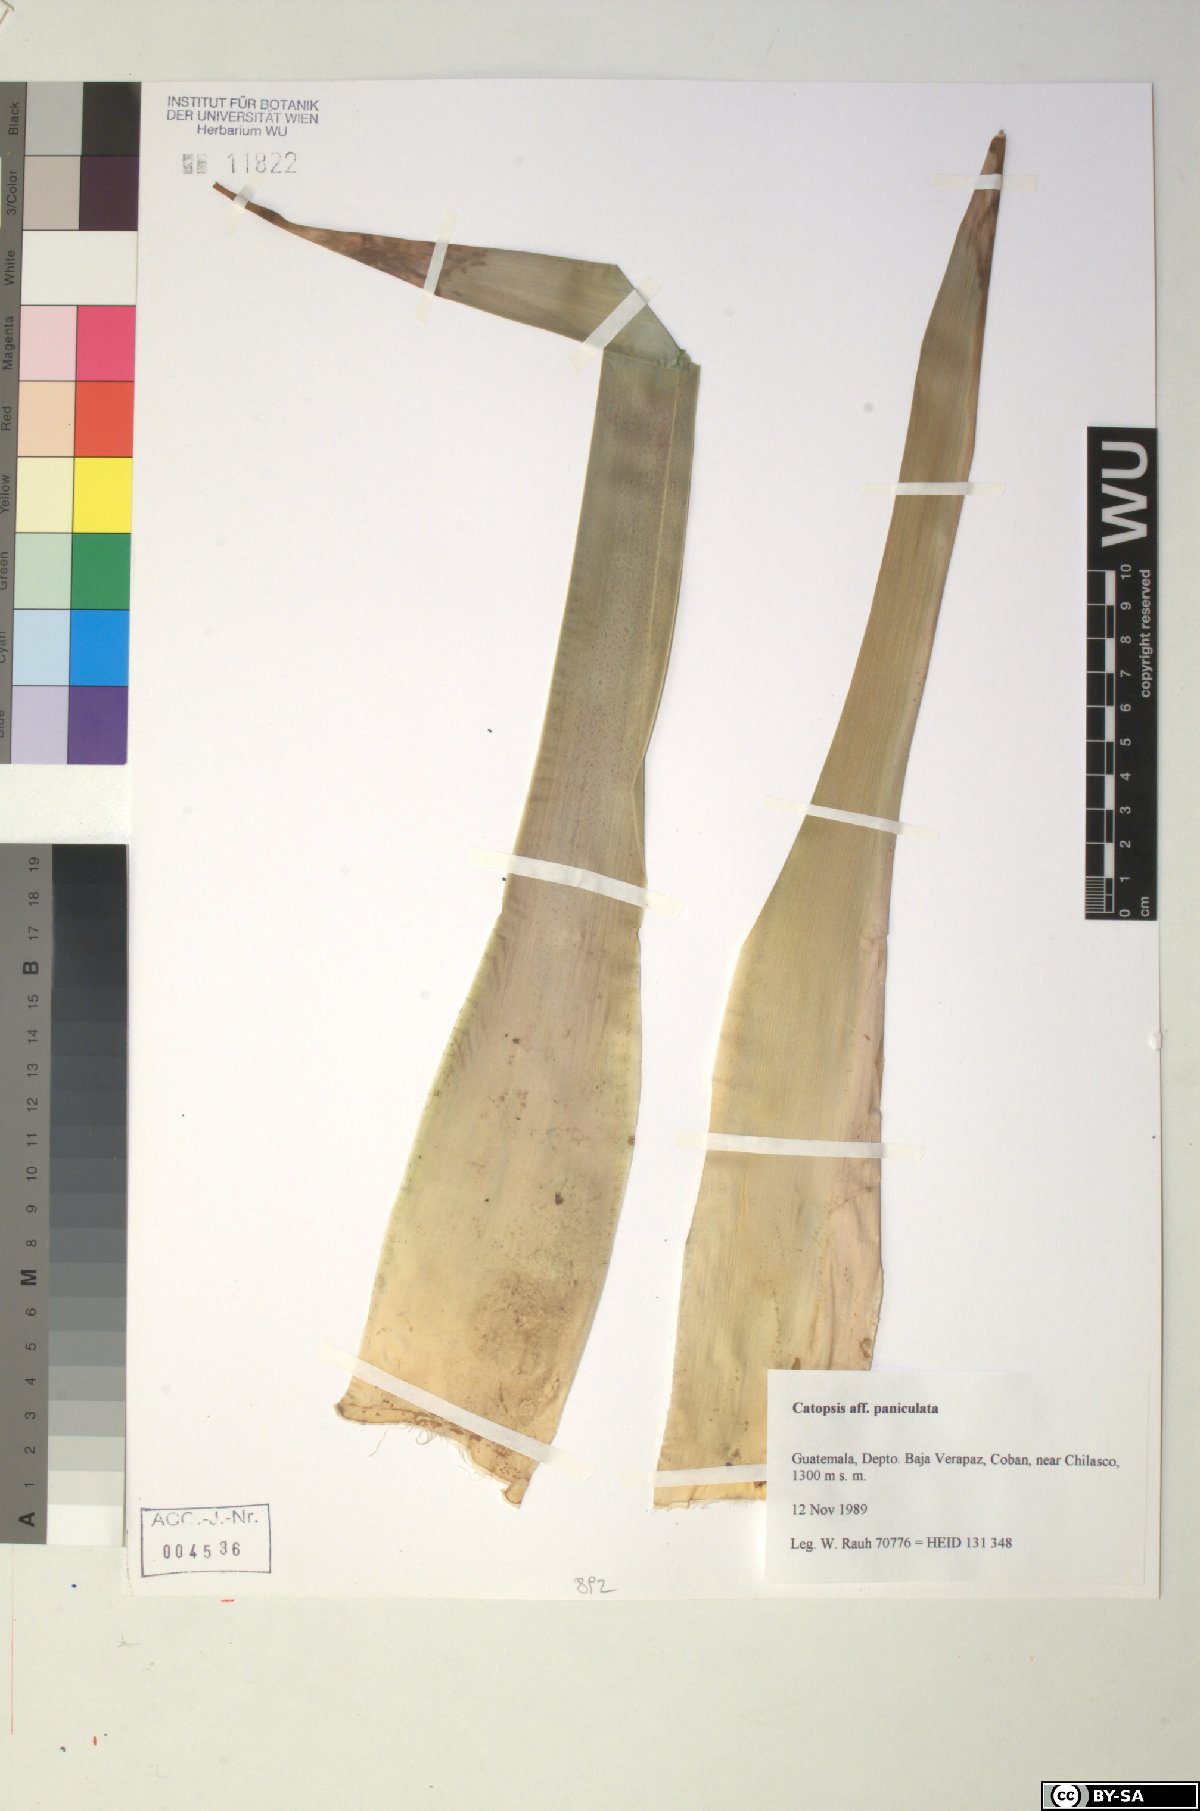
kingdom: Plantae
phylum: Tracheophyta
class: Liliopsida
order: Poales
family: Bromeliaceae
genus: Catopsis
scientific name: Catopsis paniculata
